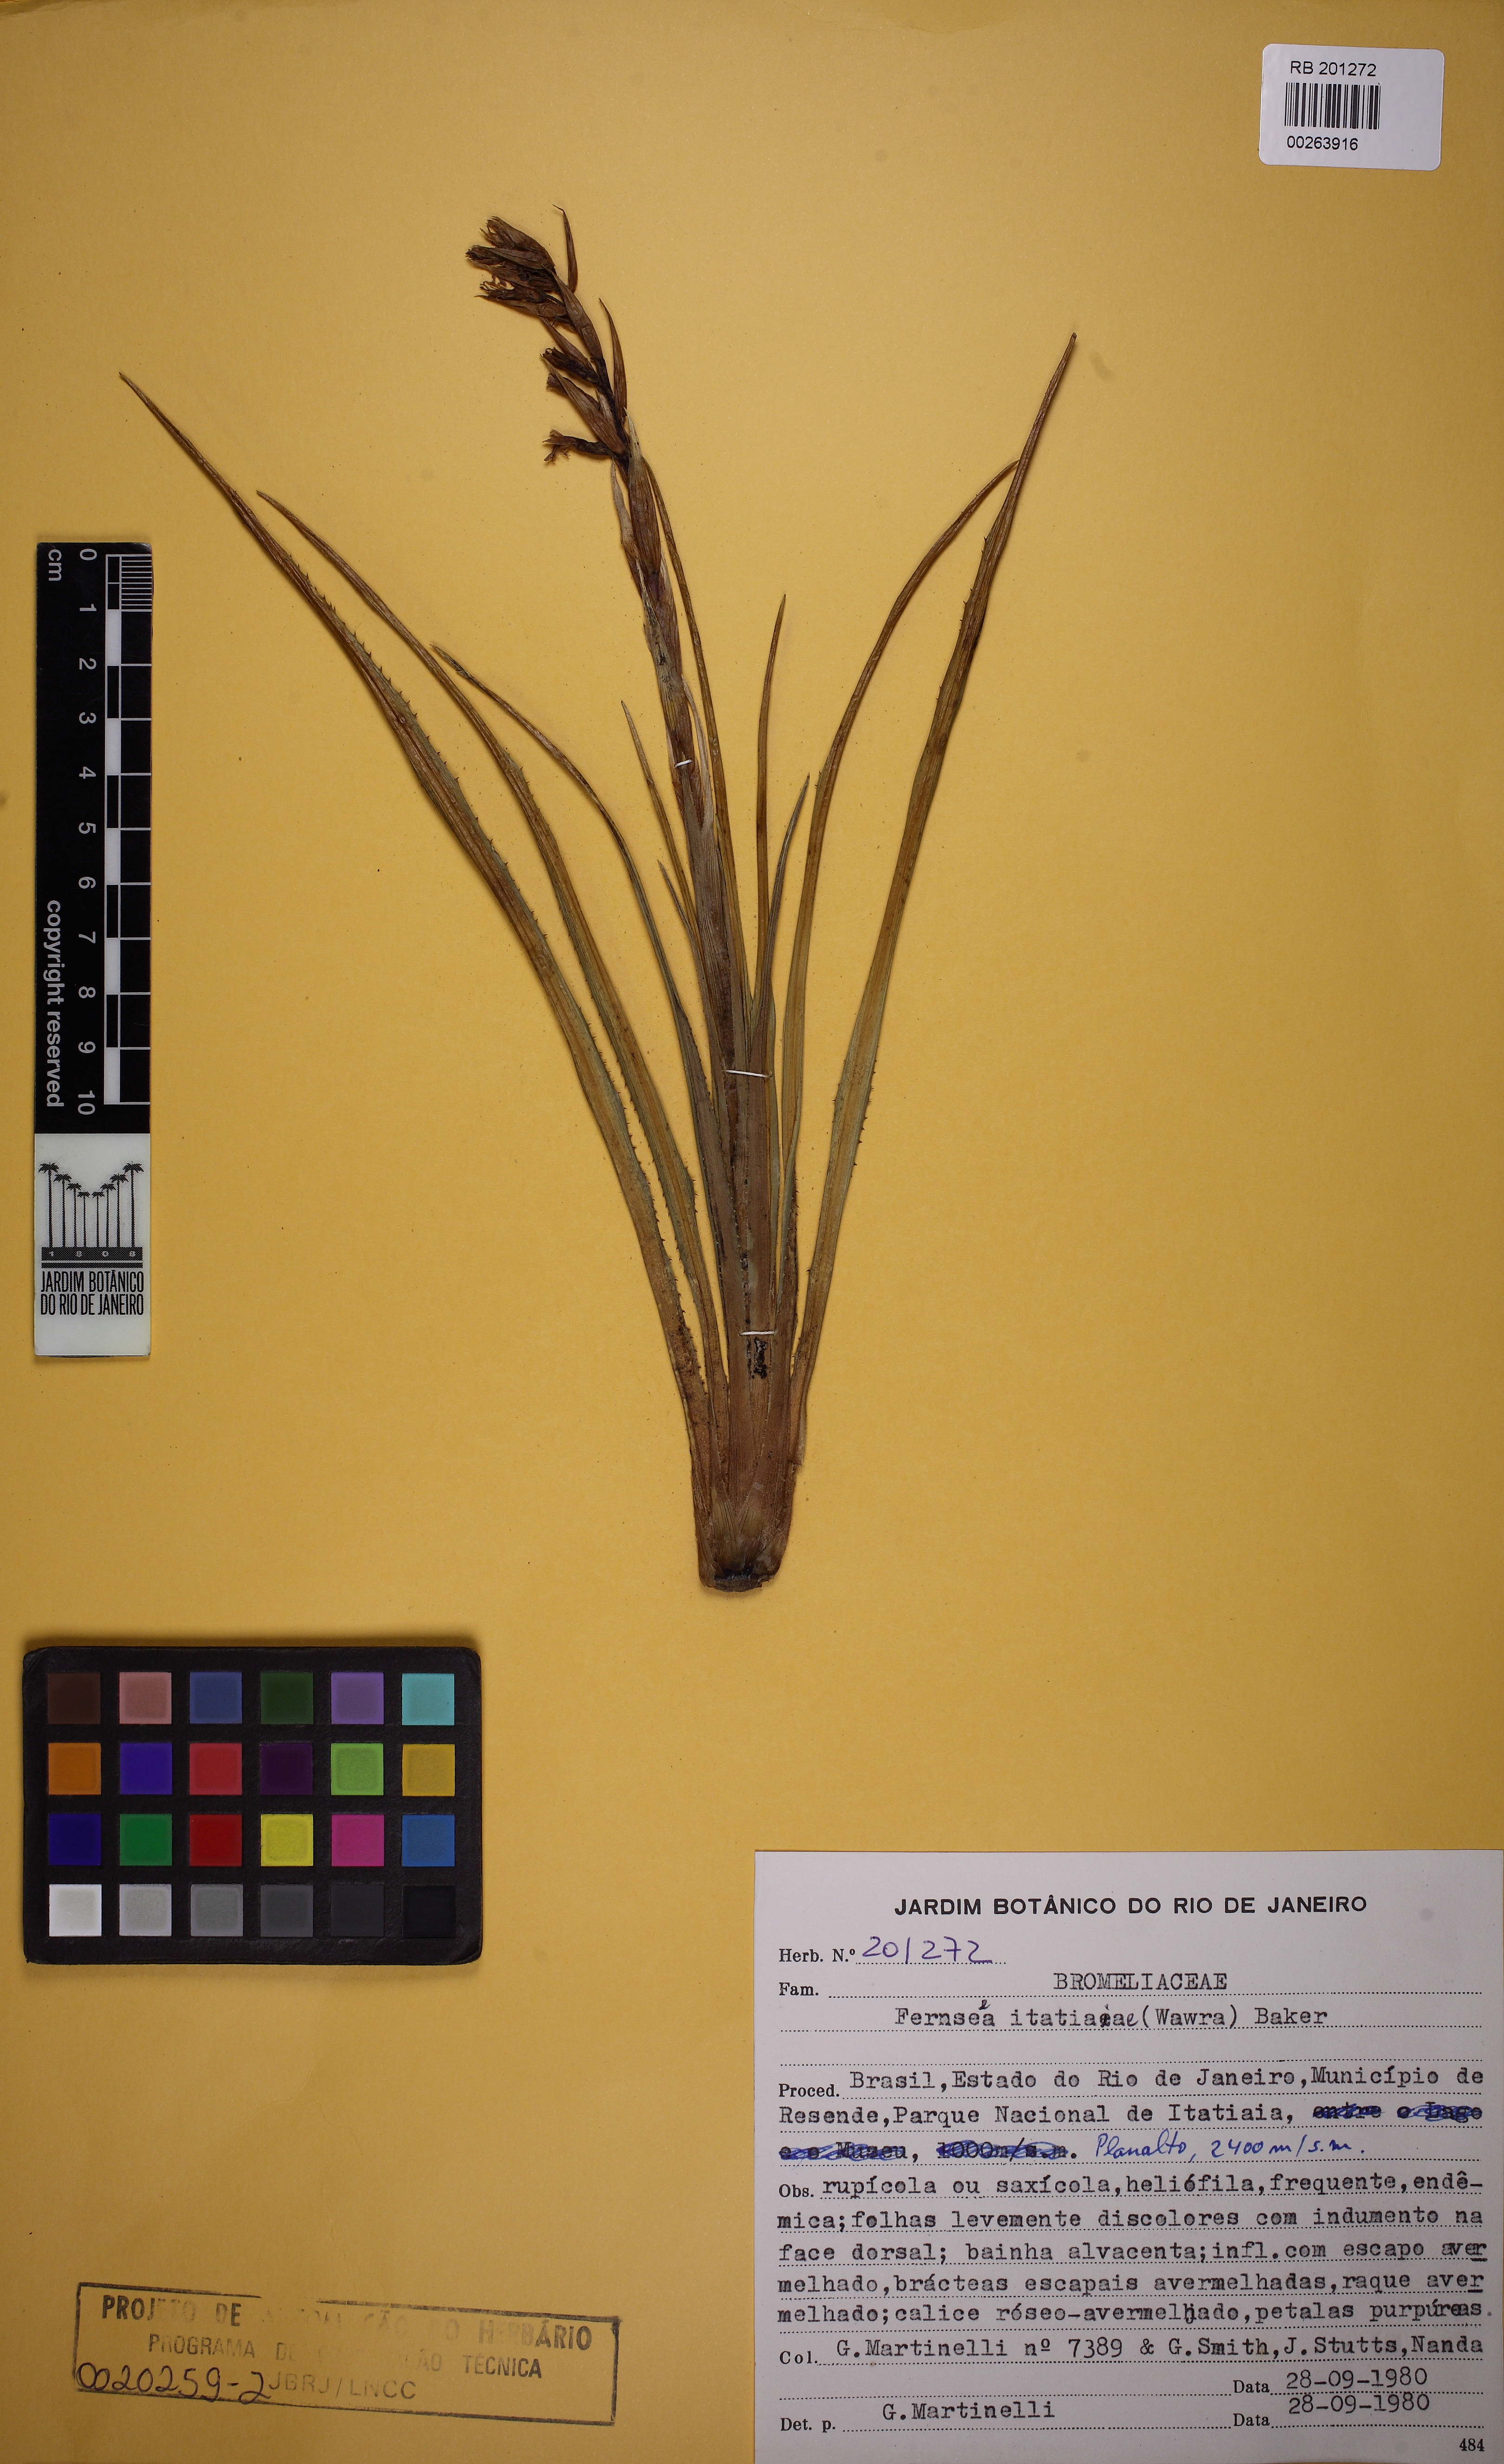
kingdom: Plantae
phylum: Tracheophyta
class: Liliopsida
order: Poales
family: Bromeliaceae
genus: Fernseea
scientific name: Fernseea itatiaiae
